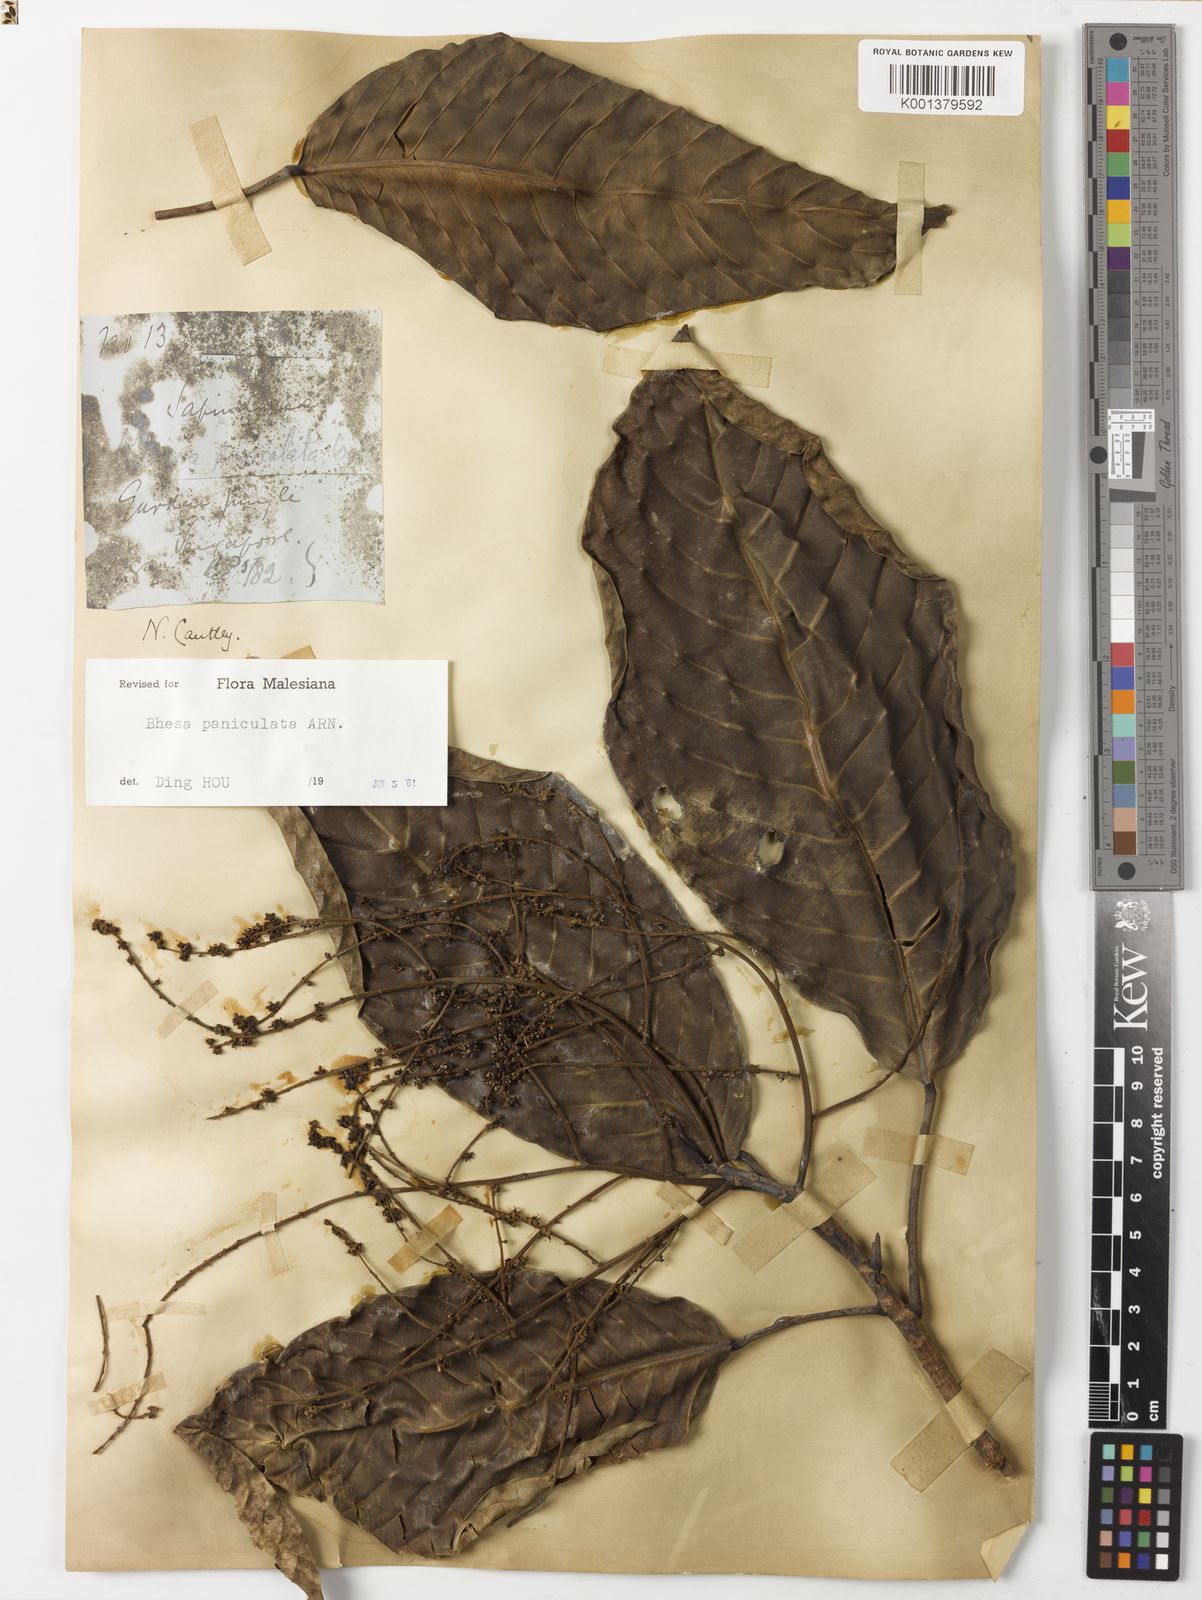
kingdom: Plantae
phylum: Tracheophyta
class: Magnoliopsida
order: Malpighiales
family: Centroplacaceae
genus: Bhesa
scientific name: Bhesa paniculata
